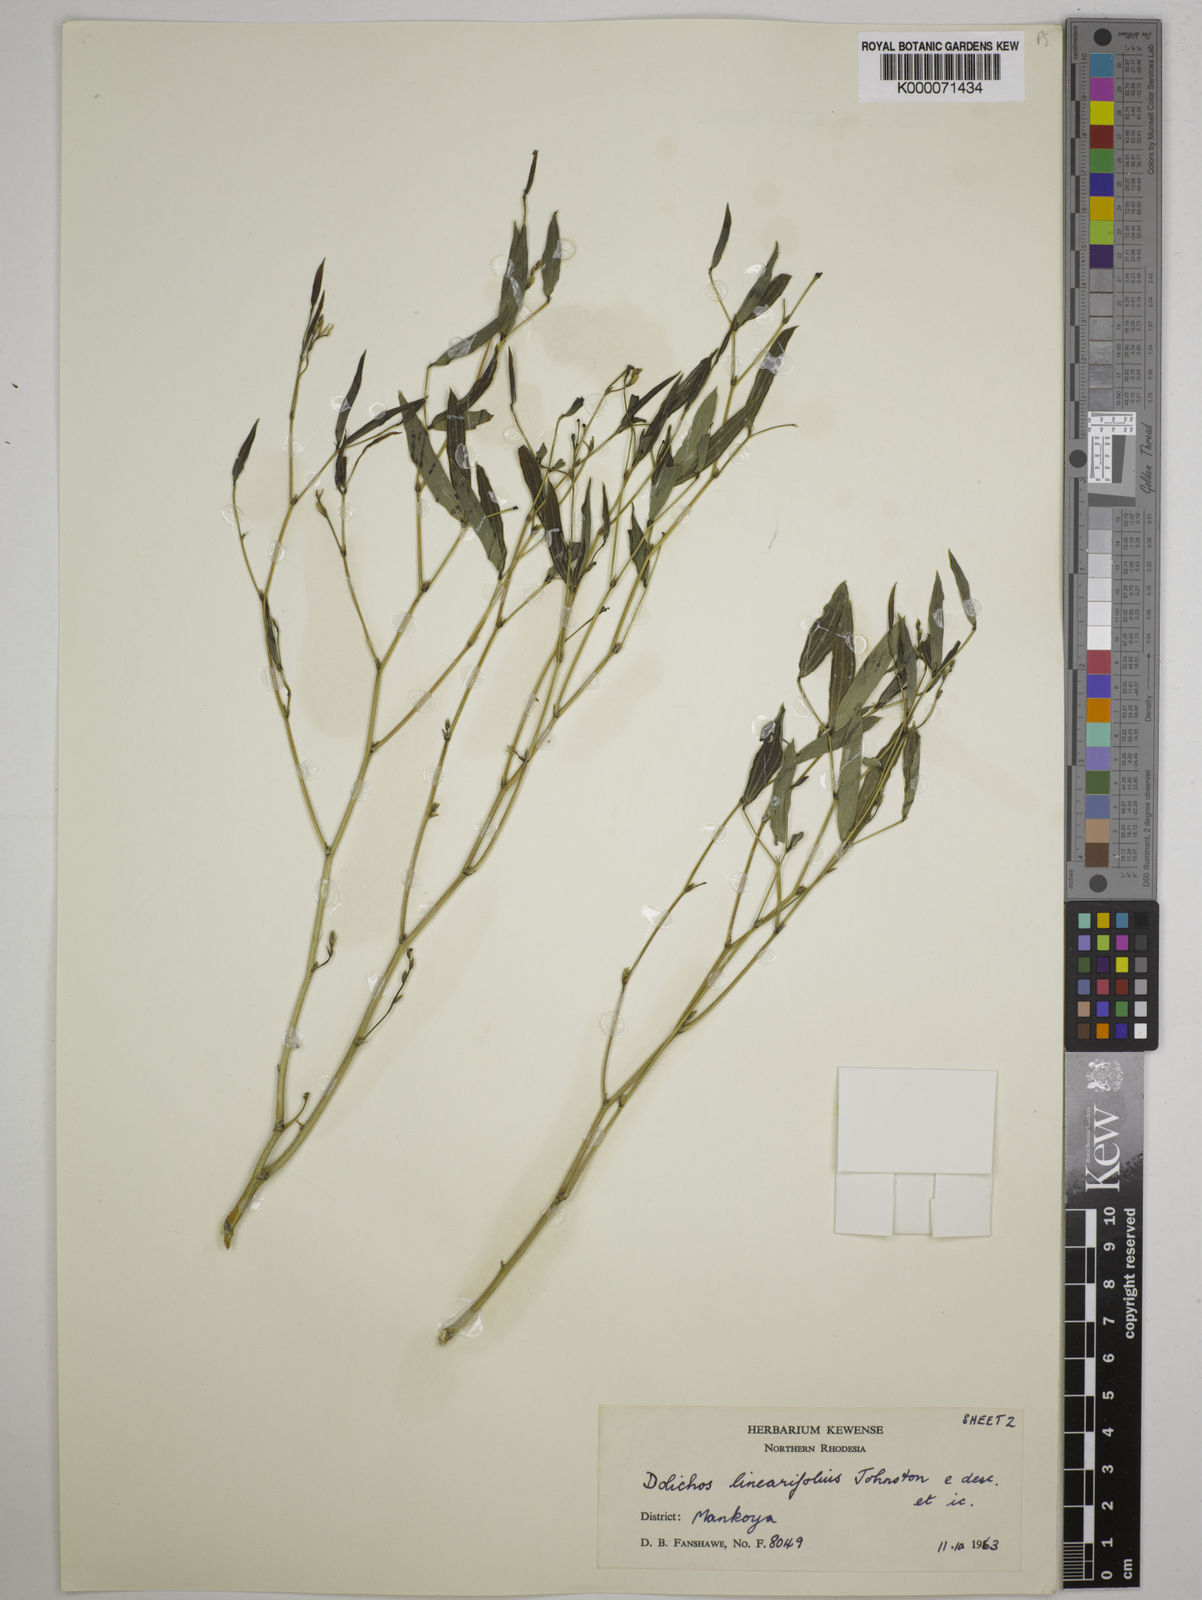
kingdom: Plantae
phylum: Tracheophyta
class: Magnoliopsida
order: Fabales
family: Fabaceae
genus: Dolichos
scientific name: Dolichos linearifolius
